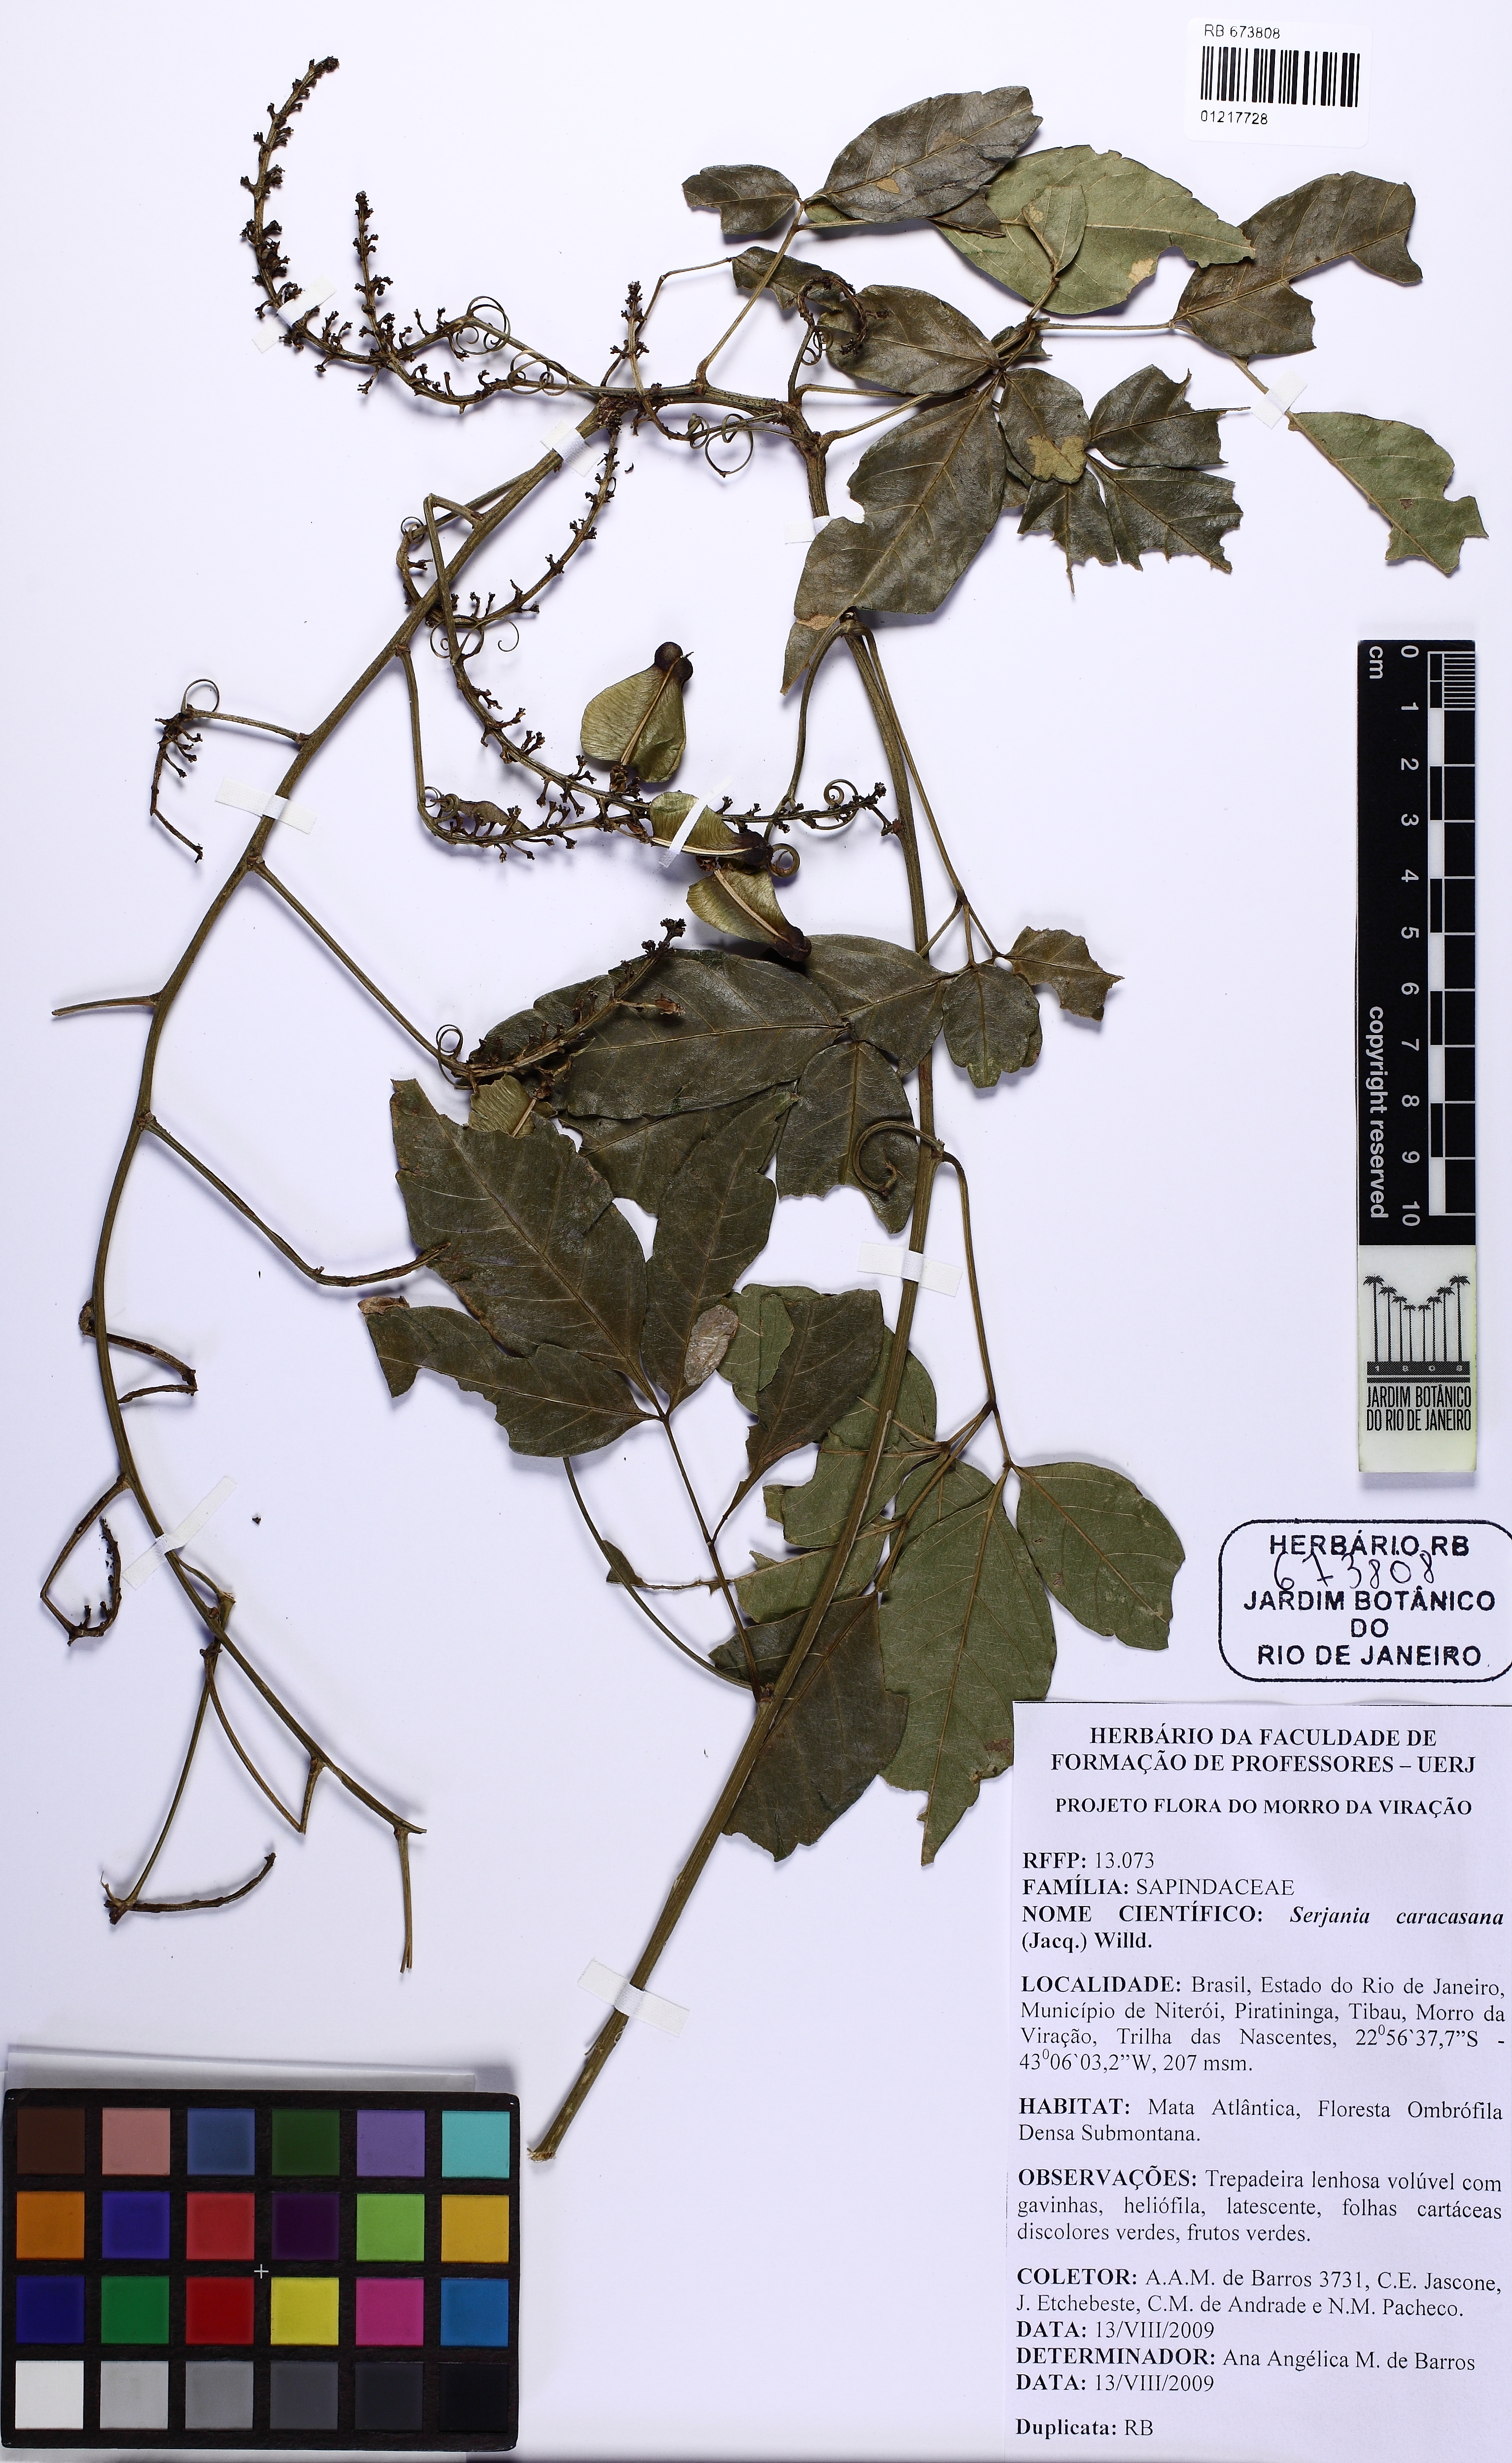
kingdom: Plantae
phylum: Tracheophyta
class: Magnoliopsida
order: Sapindales
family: Sapindaceae
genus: Serjania
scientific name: Serjania caracasana
